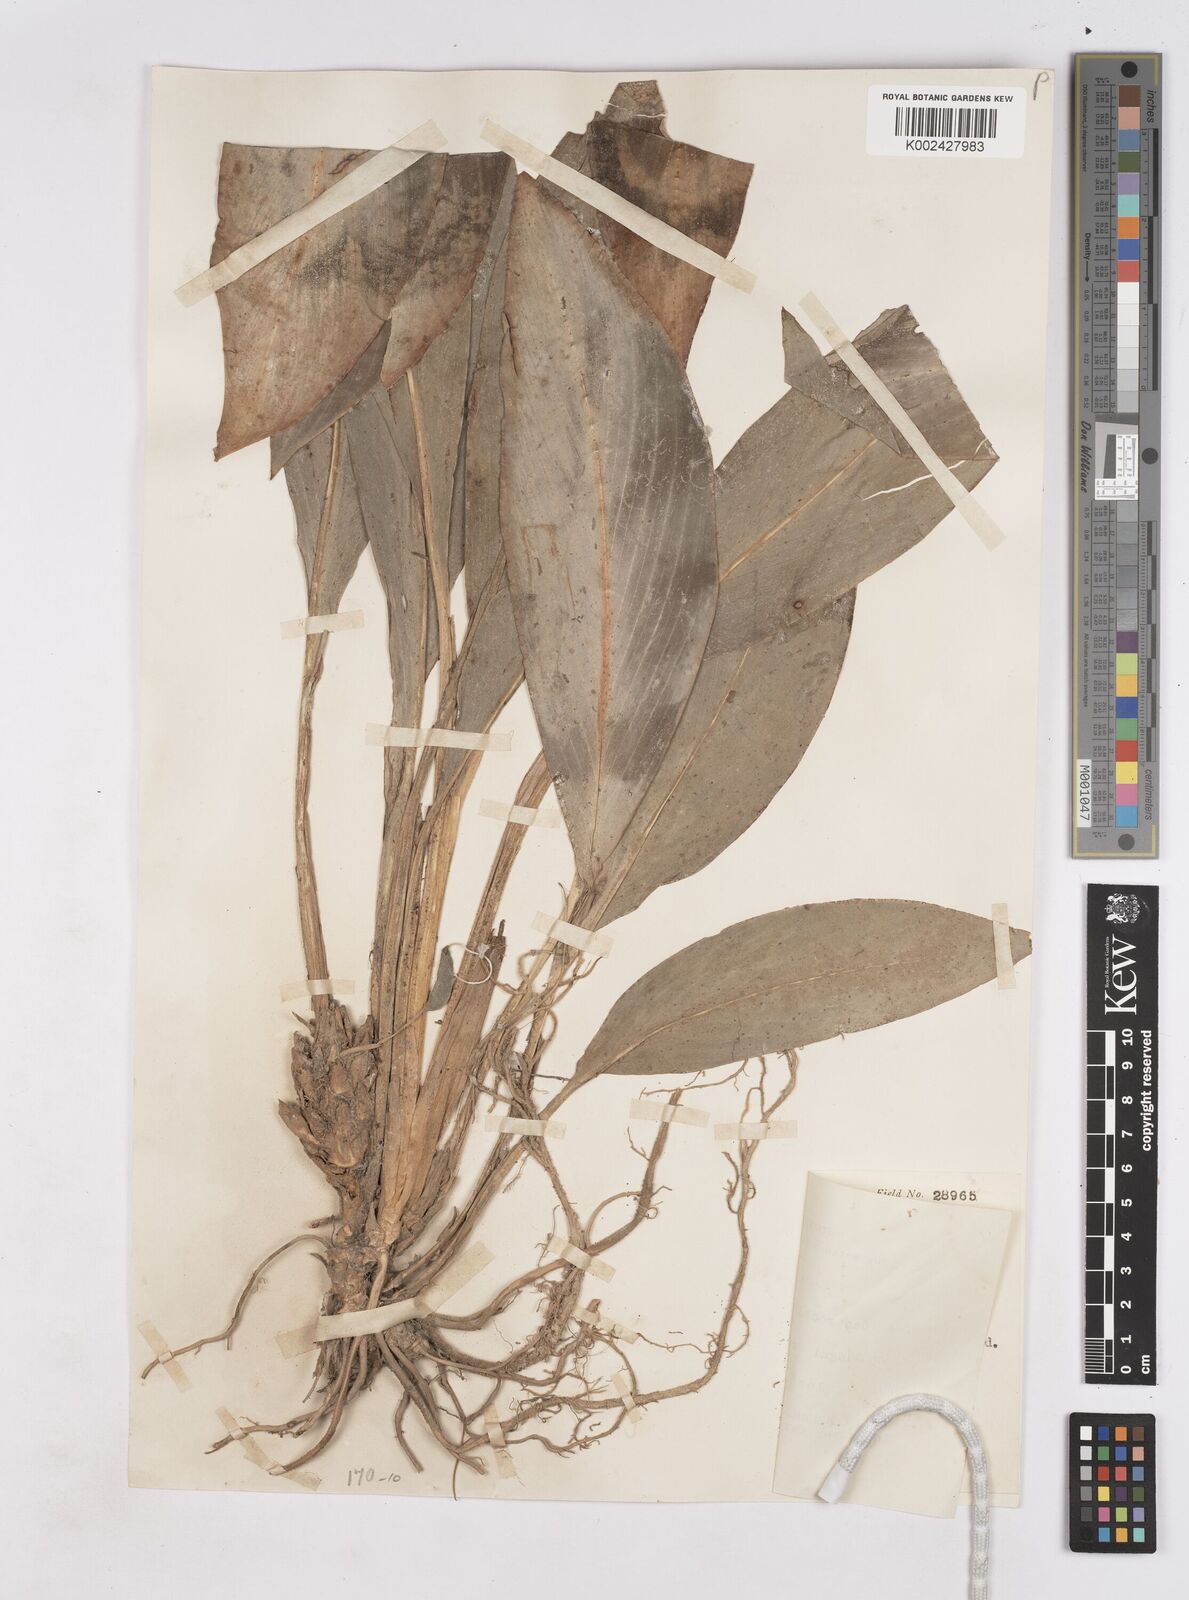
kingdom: Plantae
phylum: Tracheophyta
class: Liliopsida
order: Zingiberales
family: Zingiberaceae
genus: Scaphochlamys
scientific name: Scaphochlamys klossii
